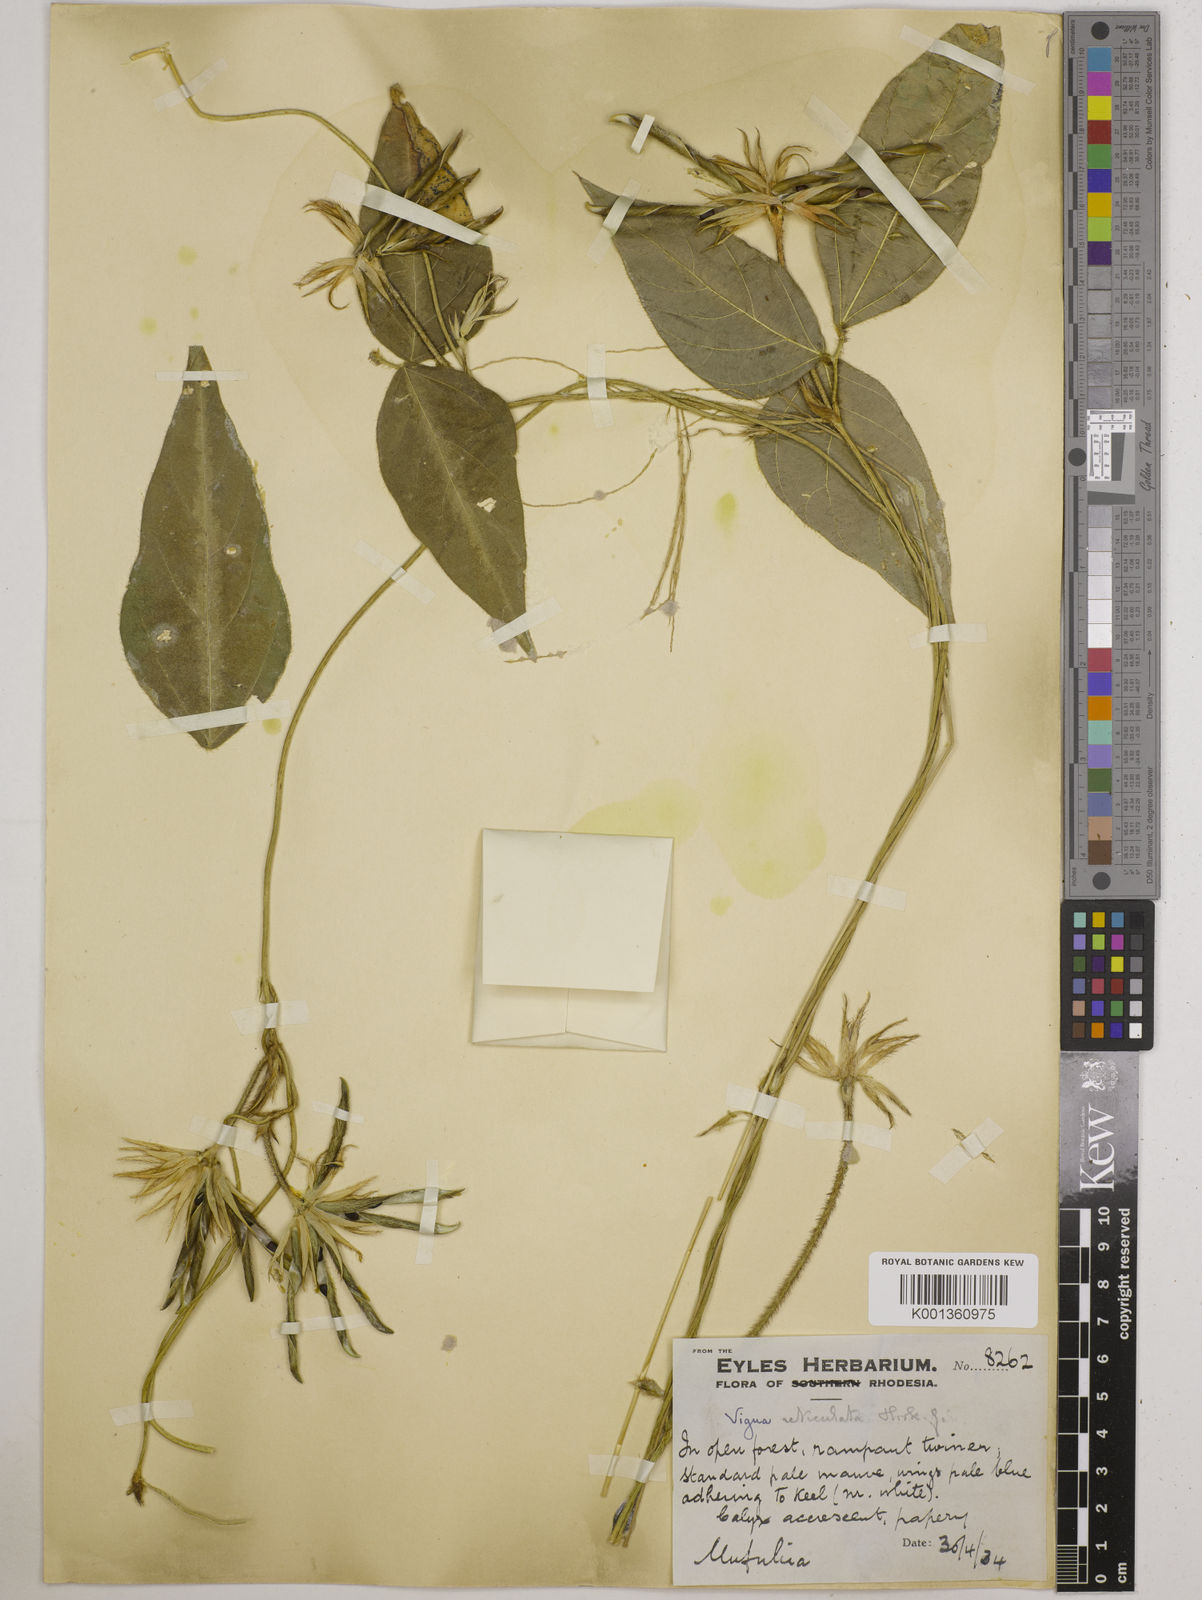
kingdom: Plantae
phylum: Tracheophyta
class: Magnoliopsida
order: Fabales
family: Fabaceae
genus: Vigna
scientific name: Vigna reticulata
